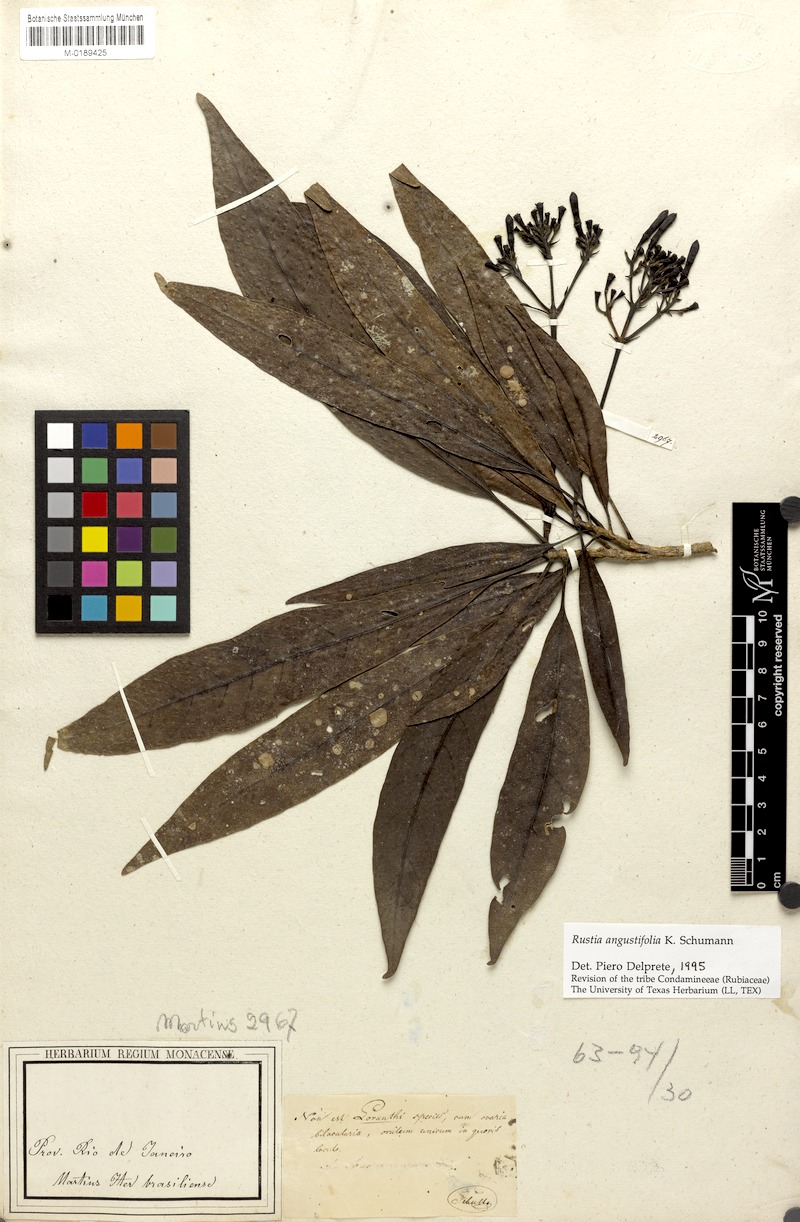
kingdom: Plantae
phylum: Tracheophyta
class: Magnoliopsida
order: Gentianales
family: Rubiaceae
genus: Rustia
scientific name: Rustia angustifolia
